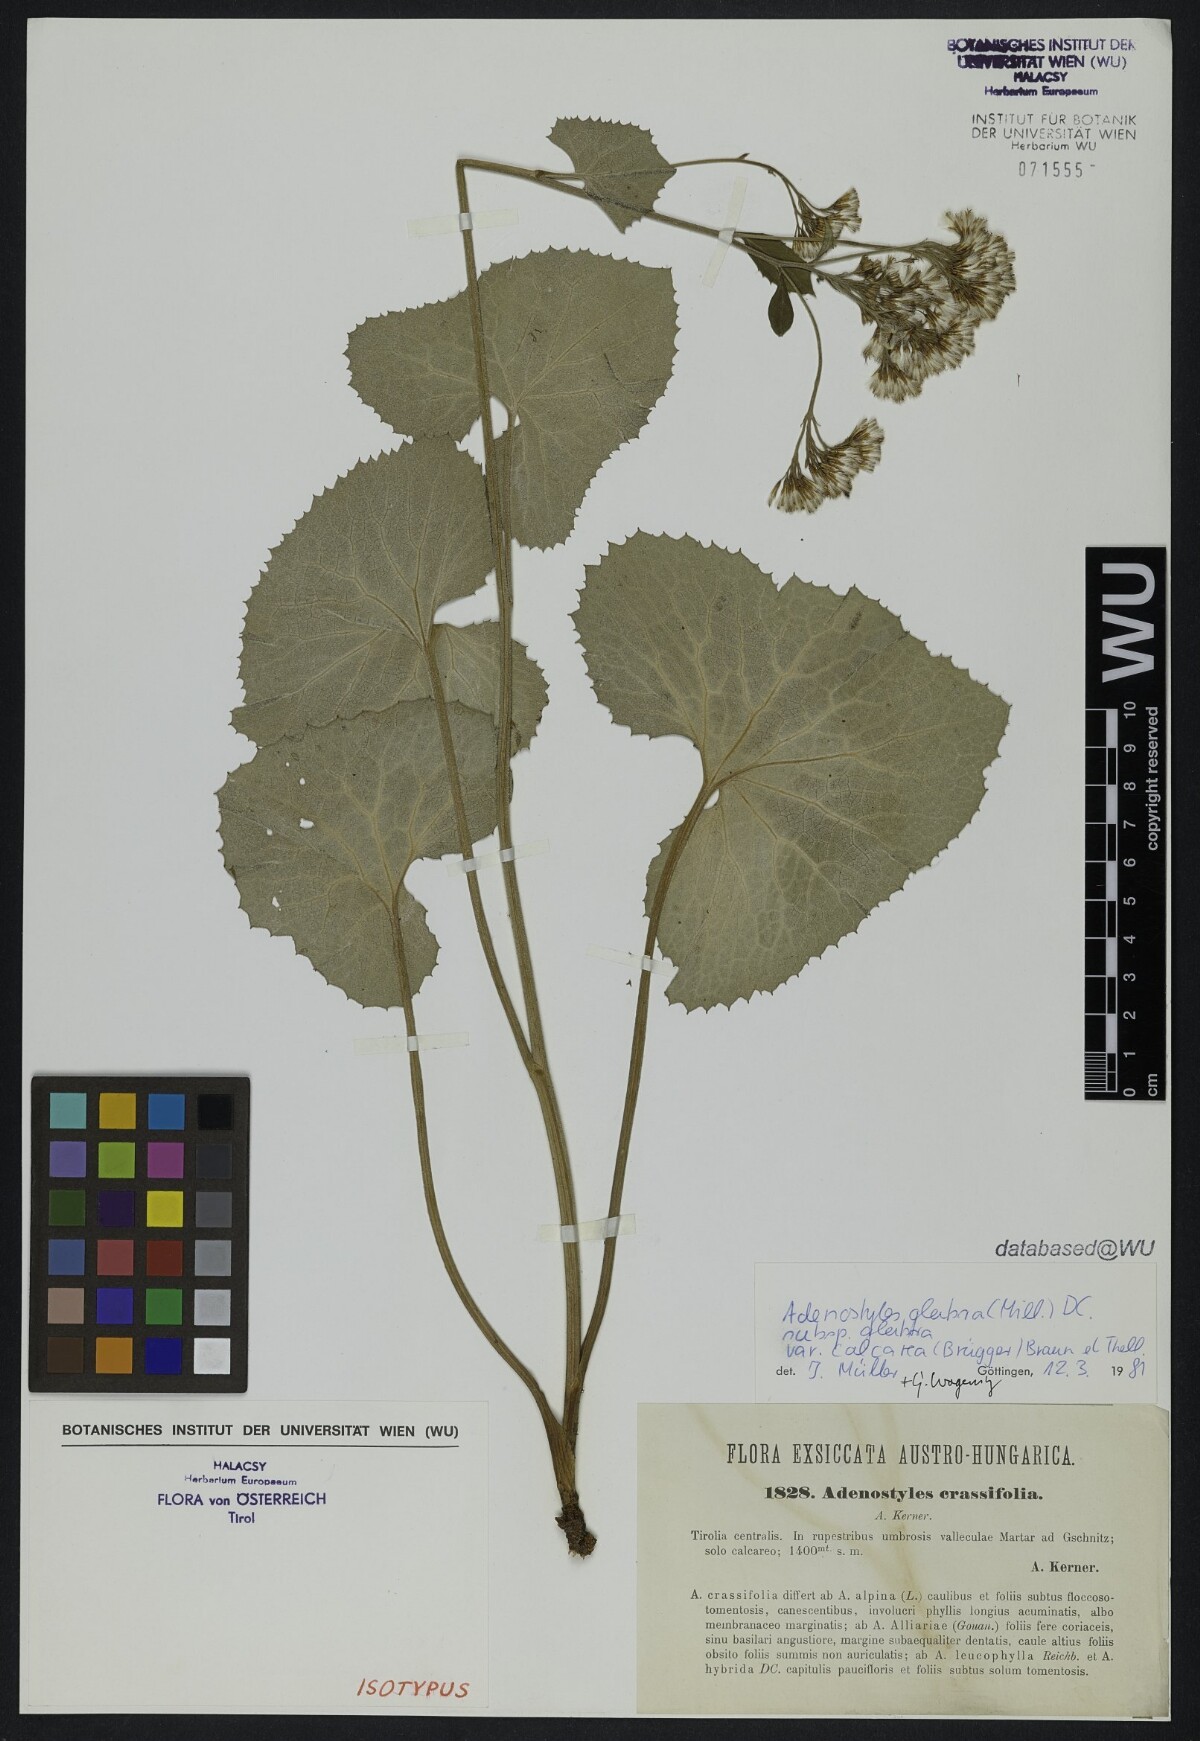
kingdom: Plantae
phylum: Tracheophyta
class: Magnoliopsida
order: Asterales
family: Asteraceae
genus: Adenostyles
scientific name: Adenostyles alpina
